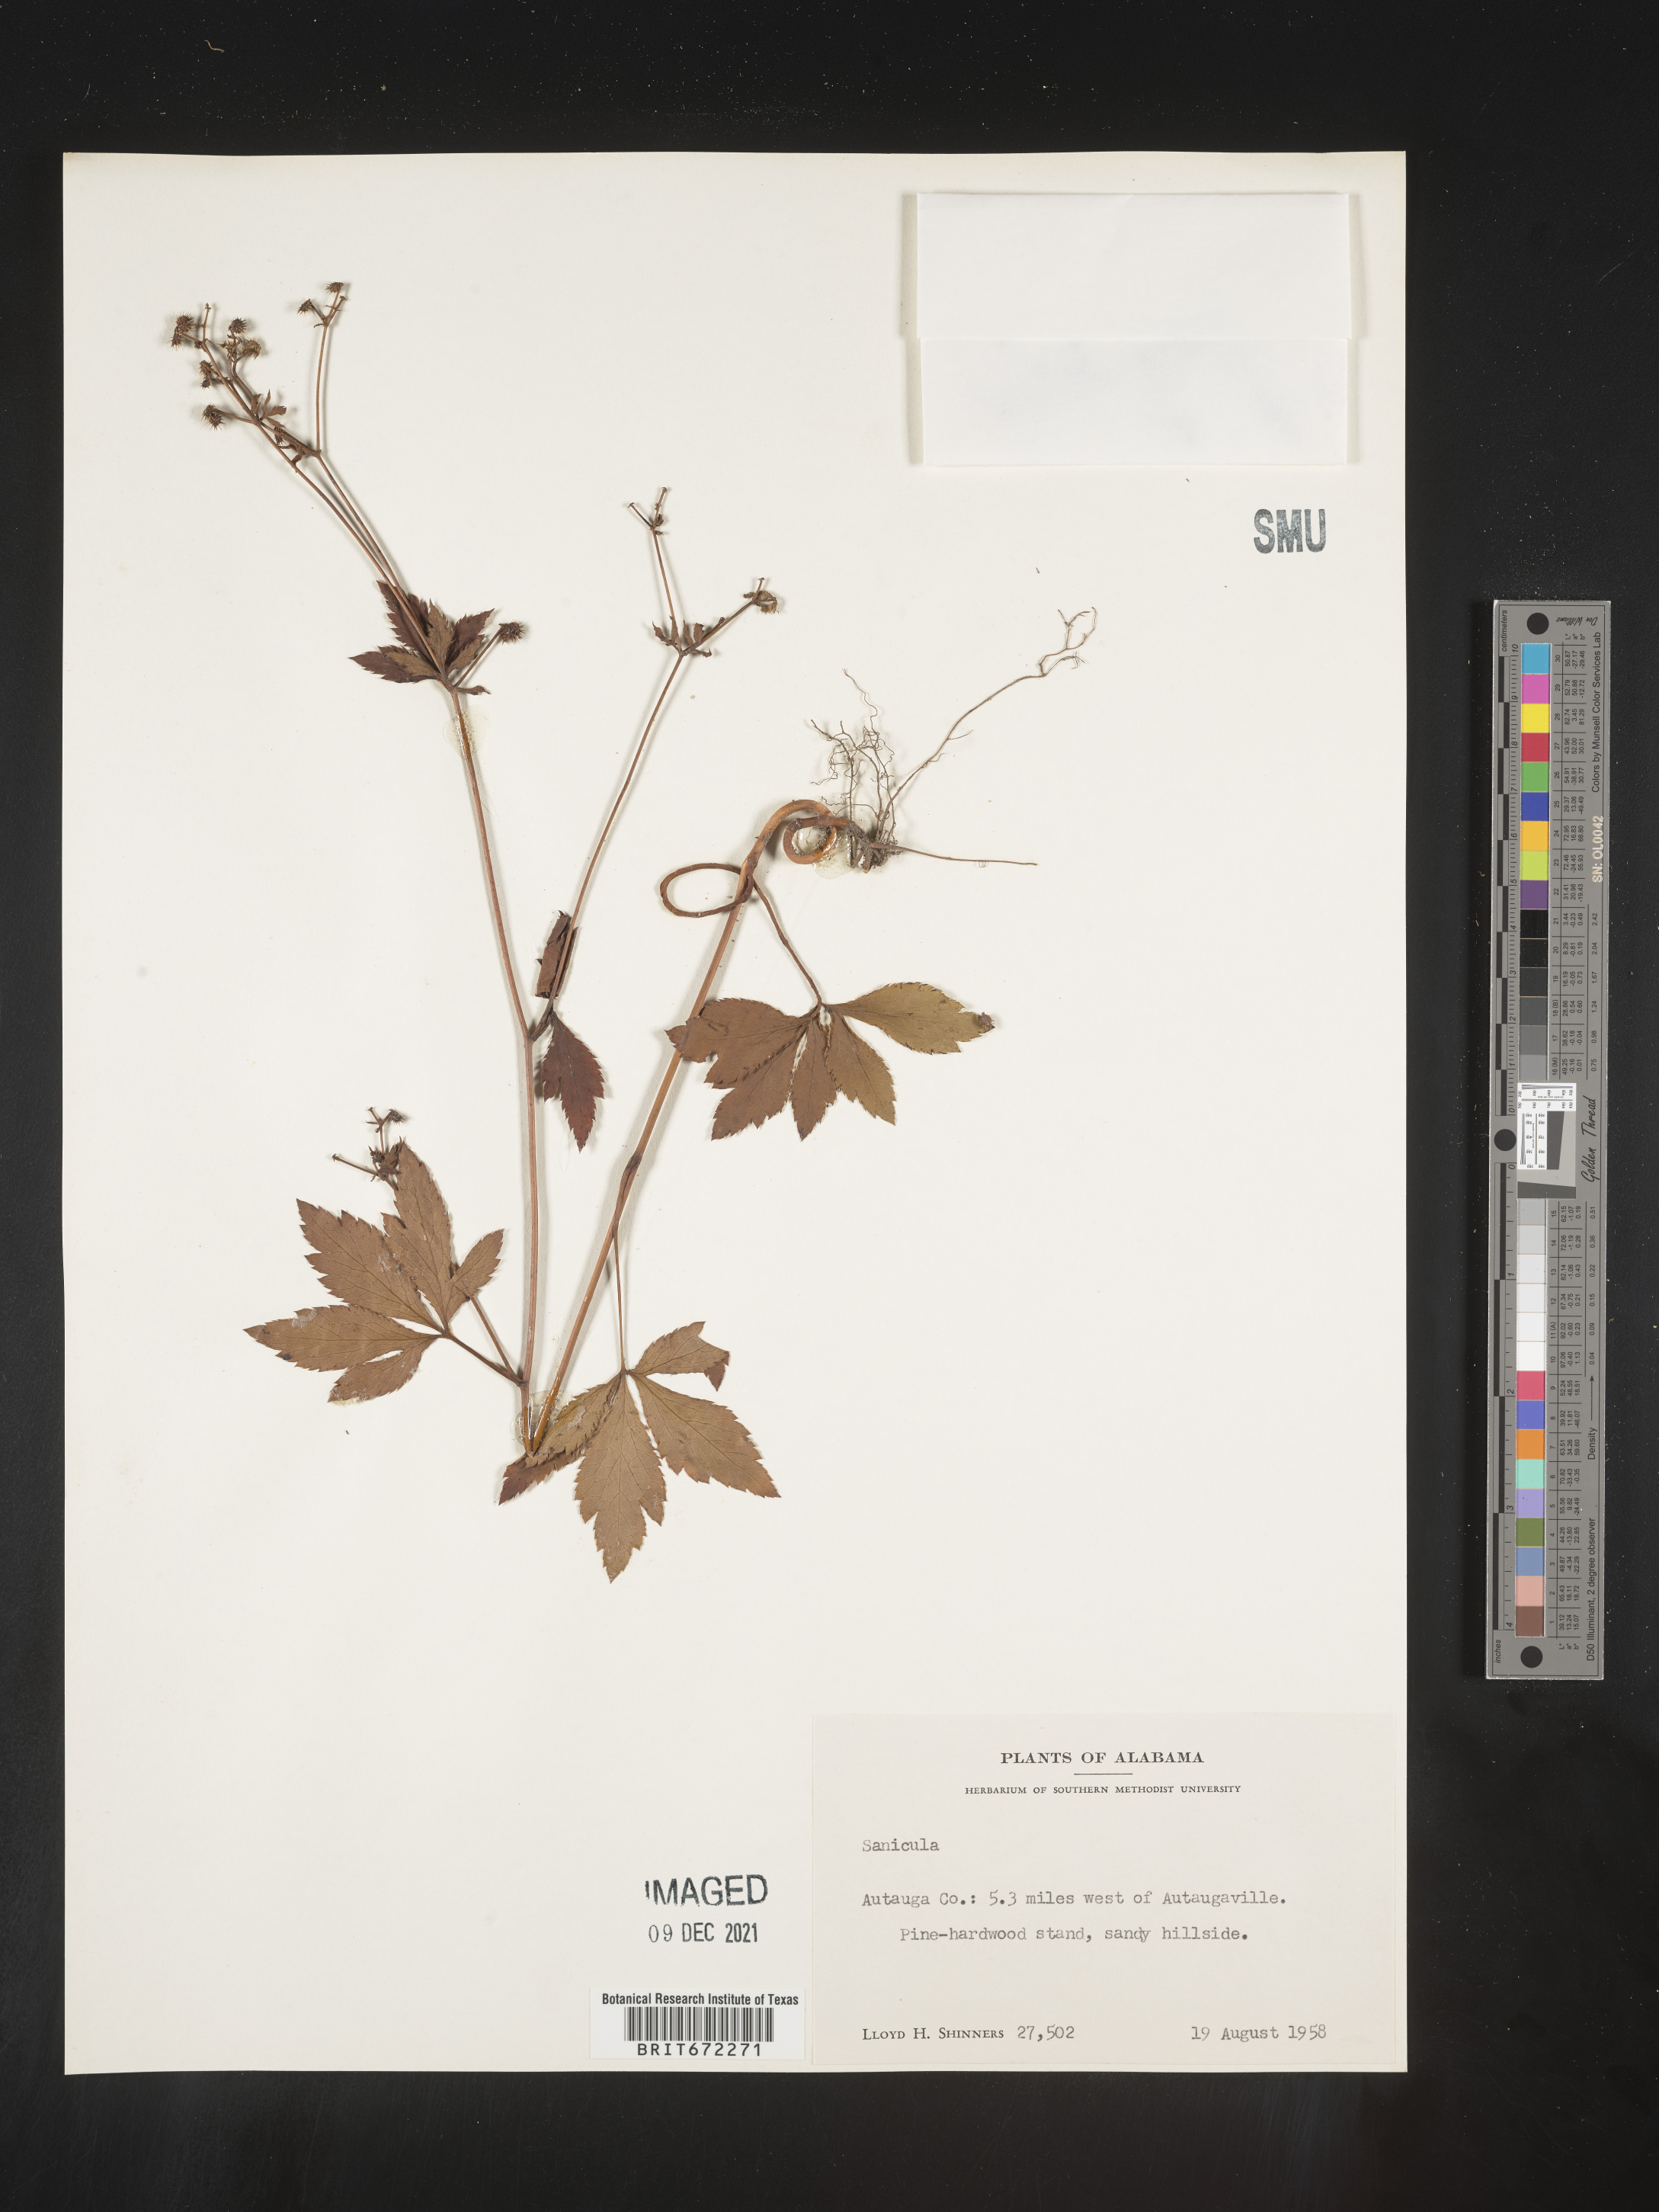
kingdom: Plantae
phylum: Tracheophyta
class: Magnoliopsida
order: Apiales
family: Apiaceae
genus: Sanicula
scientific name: Sanicula
